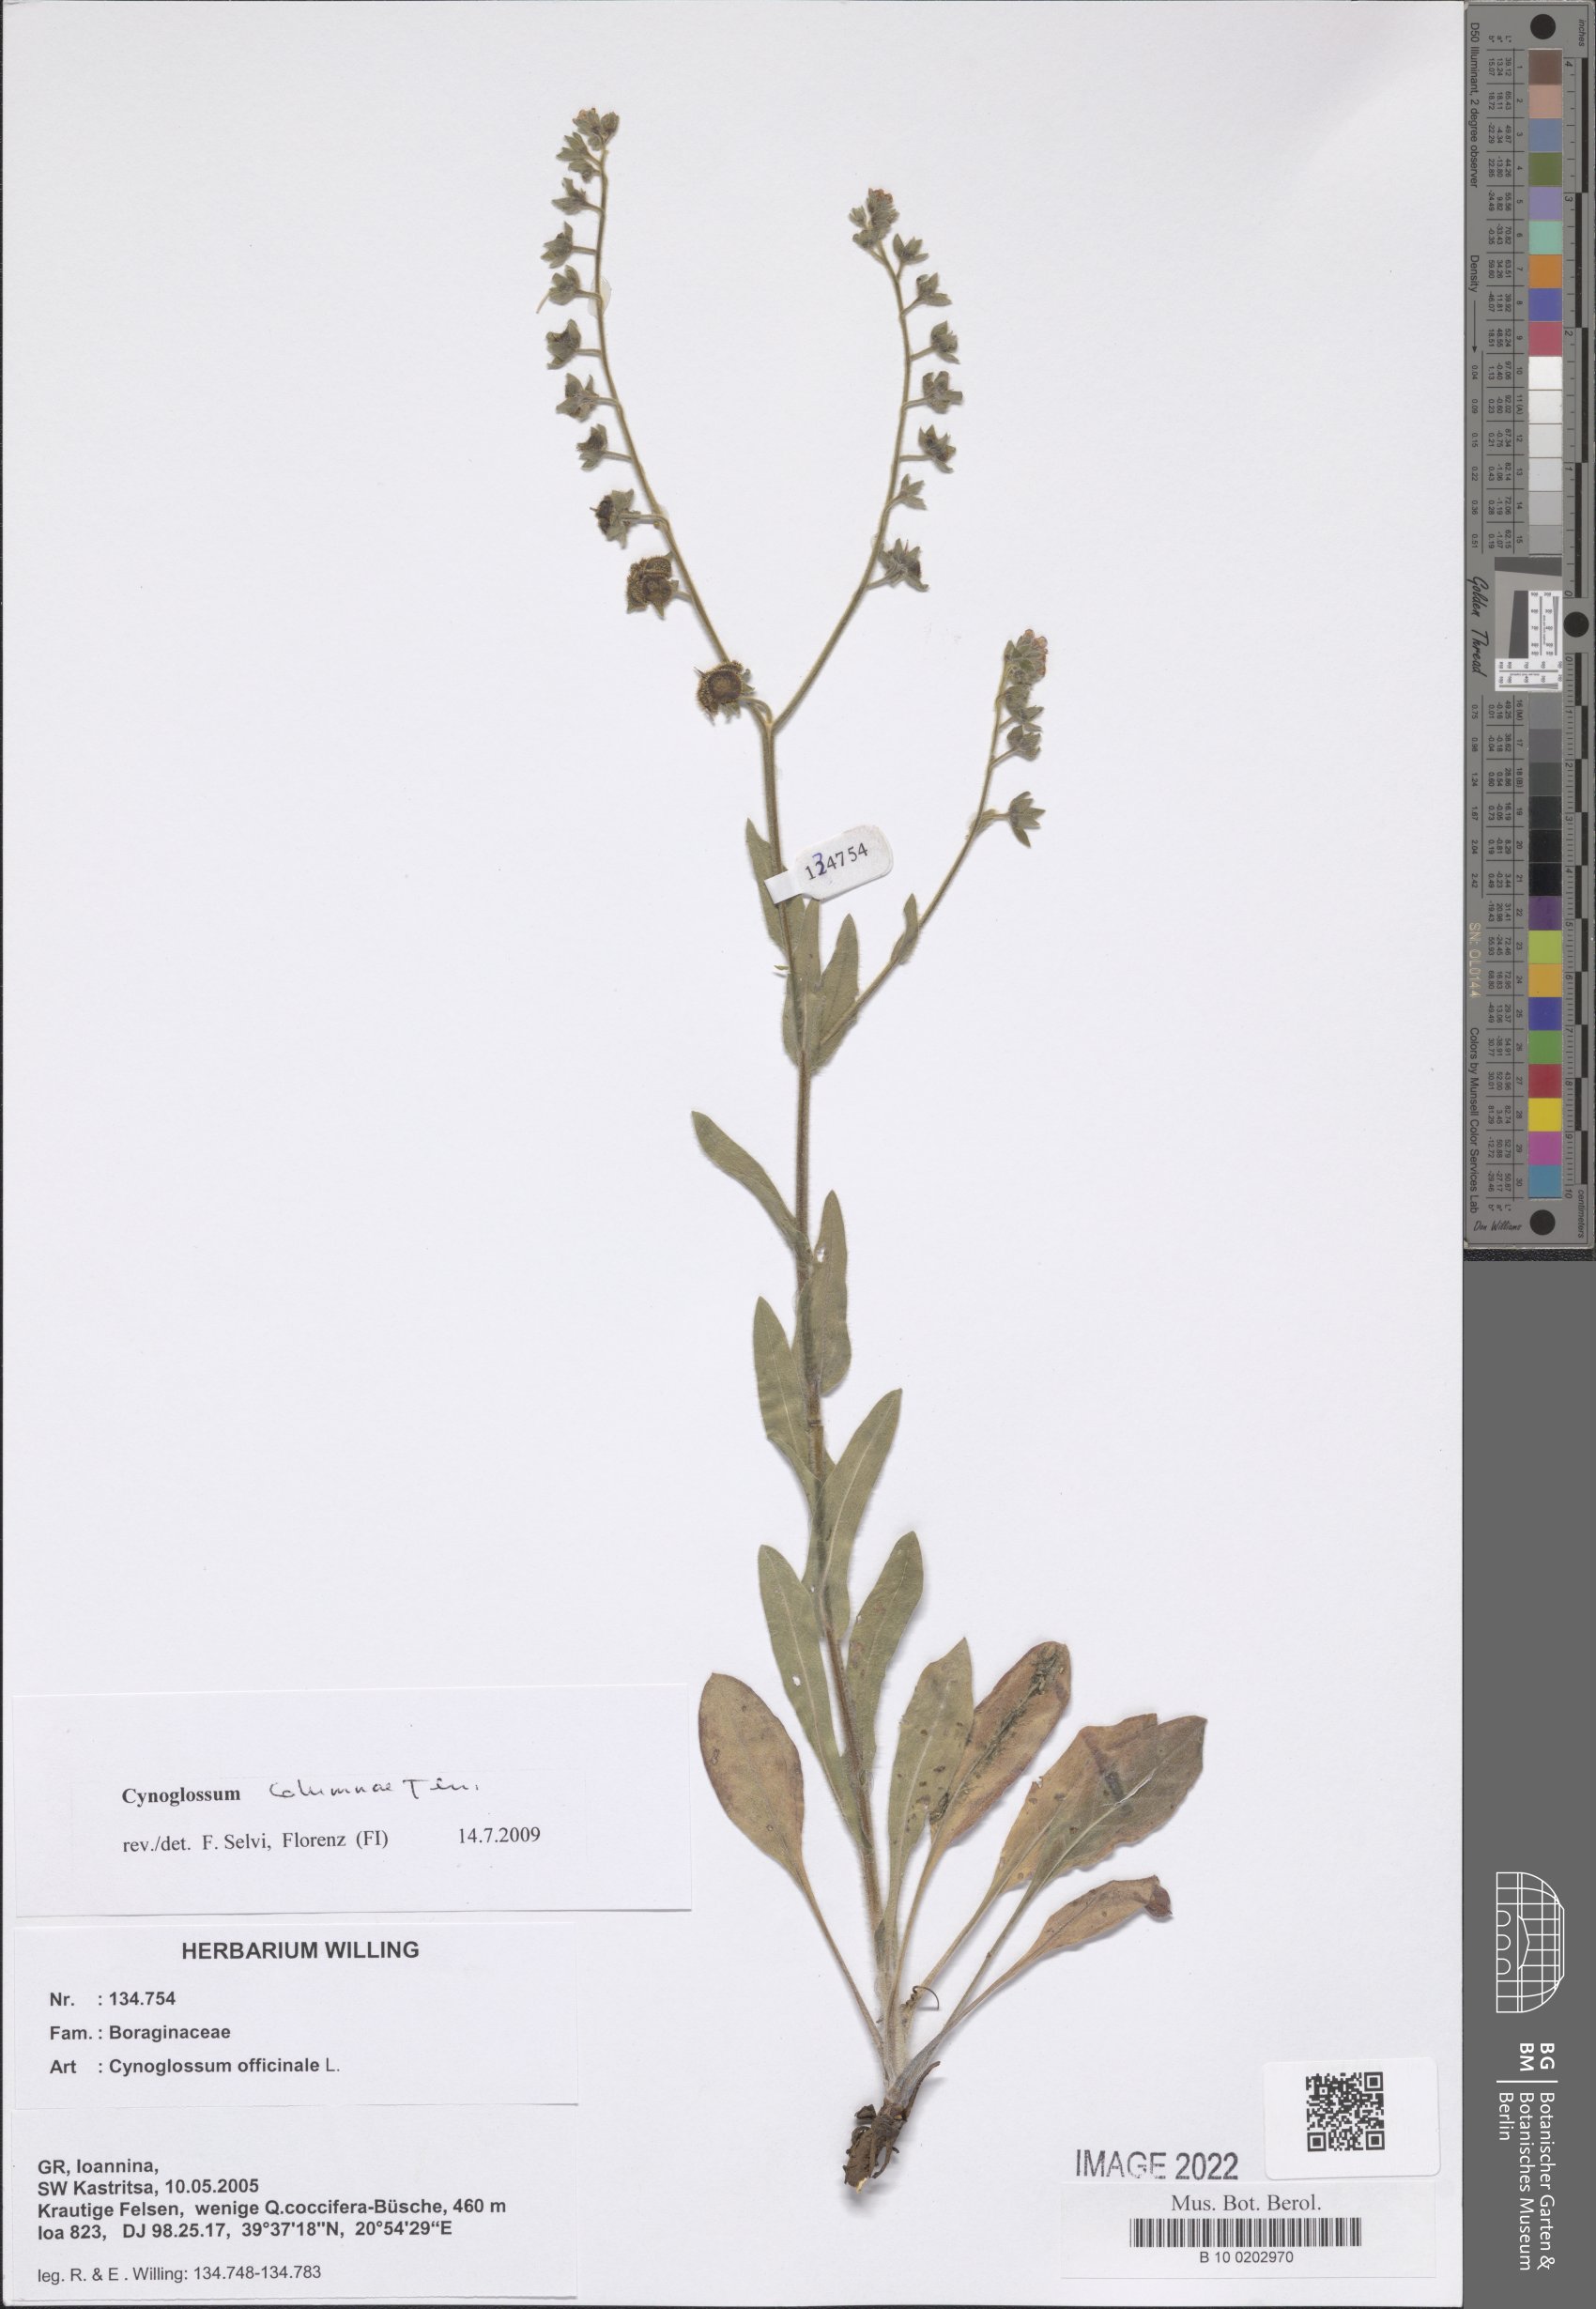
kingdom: Plantae
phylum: Tracheophyta
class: Magnoliopsida
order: Boraginales
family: Boraginaceae
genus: Rindera
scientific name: Rindera columnae
